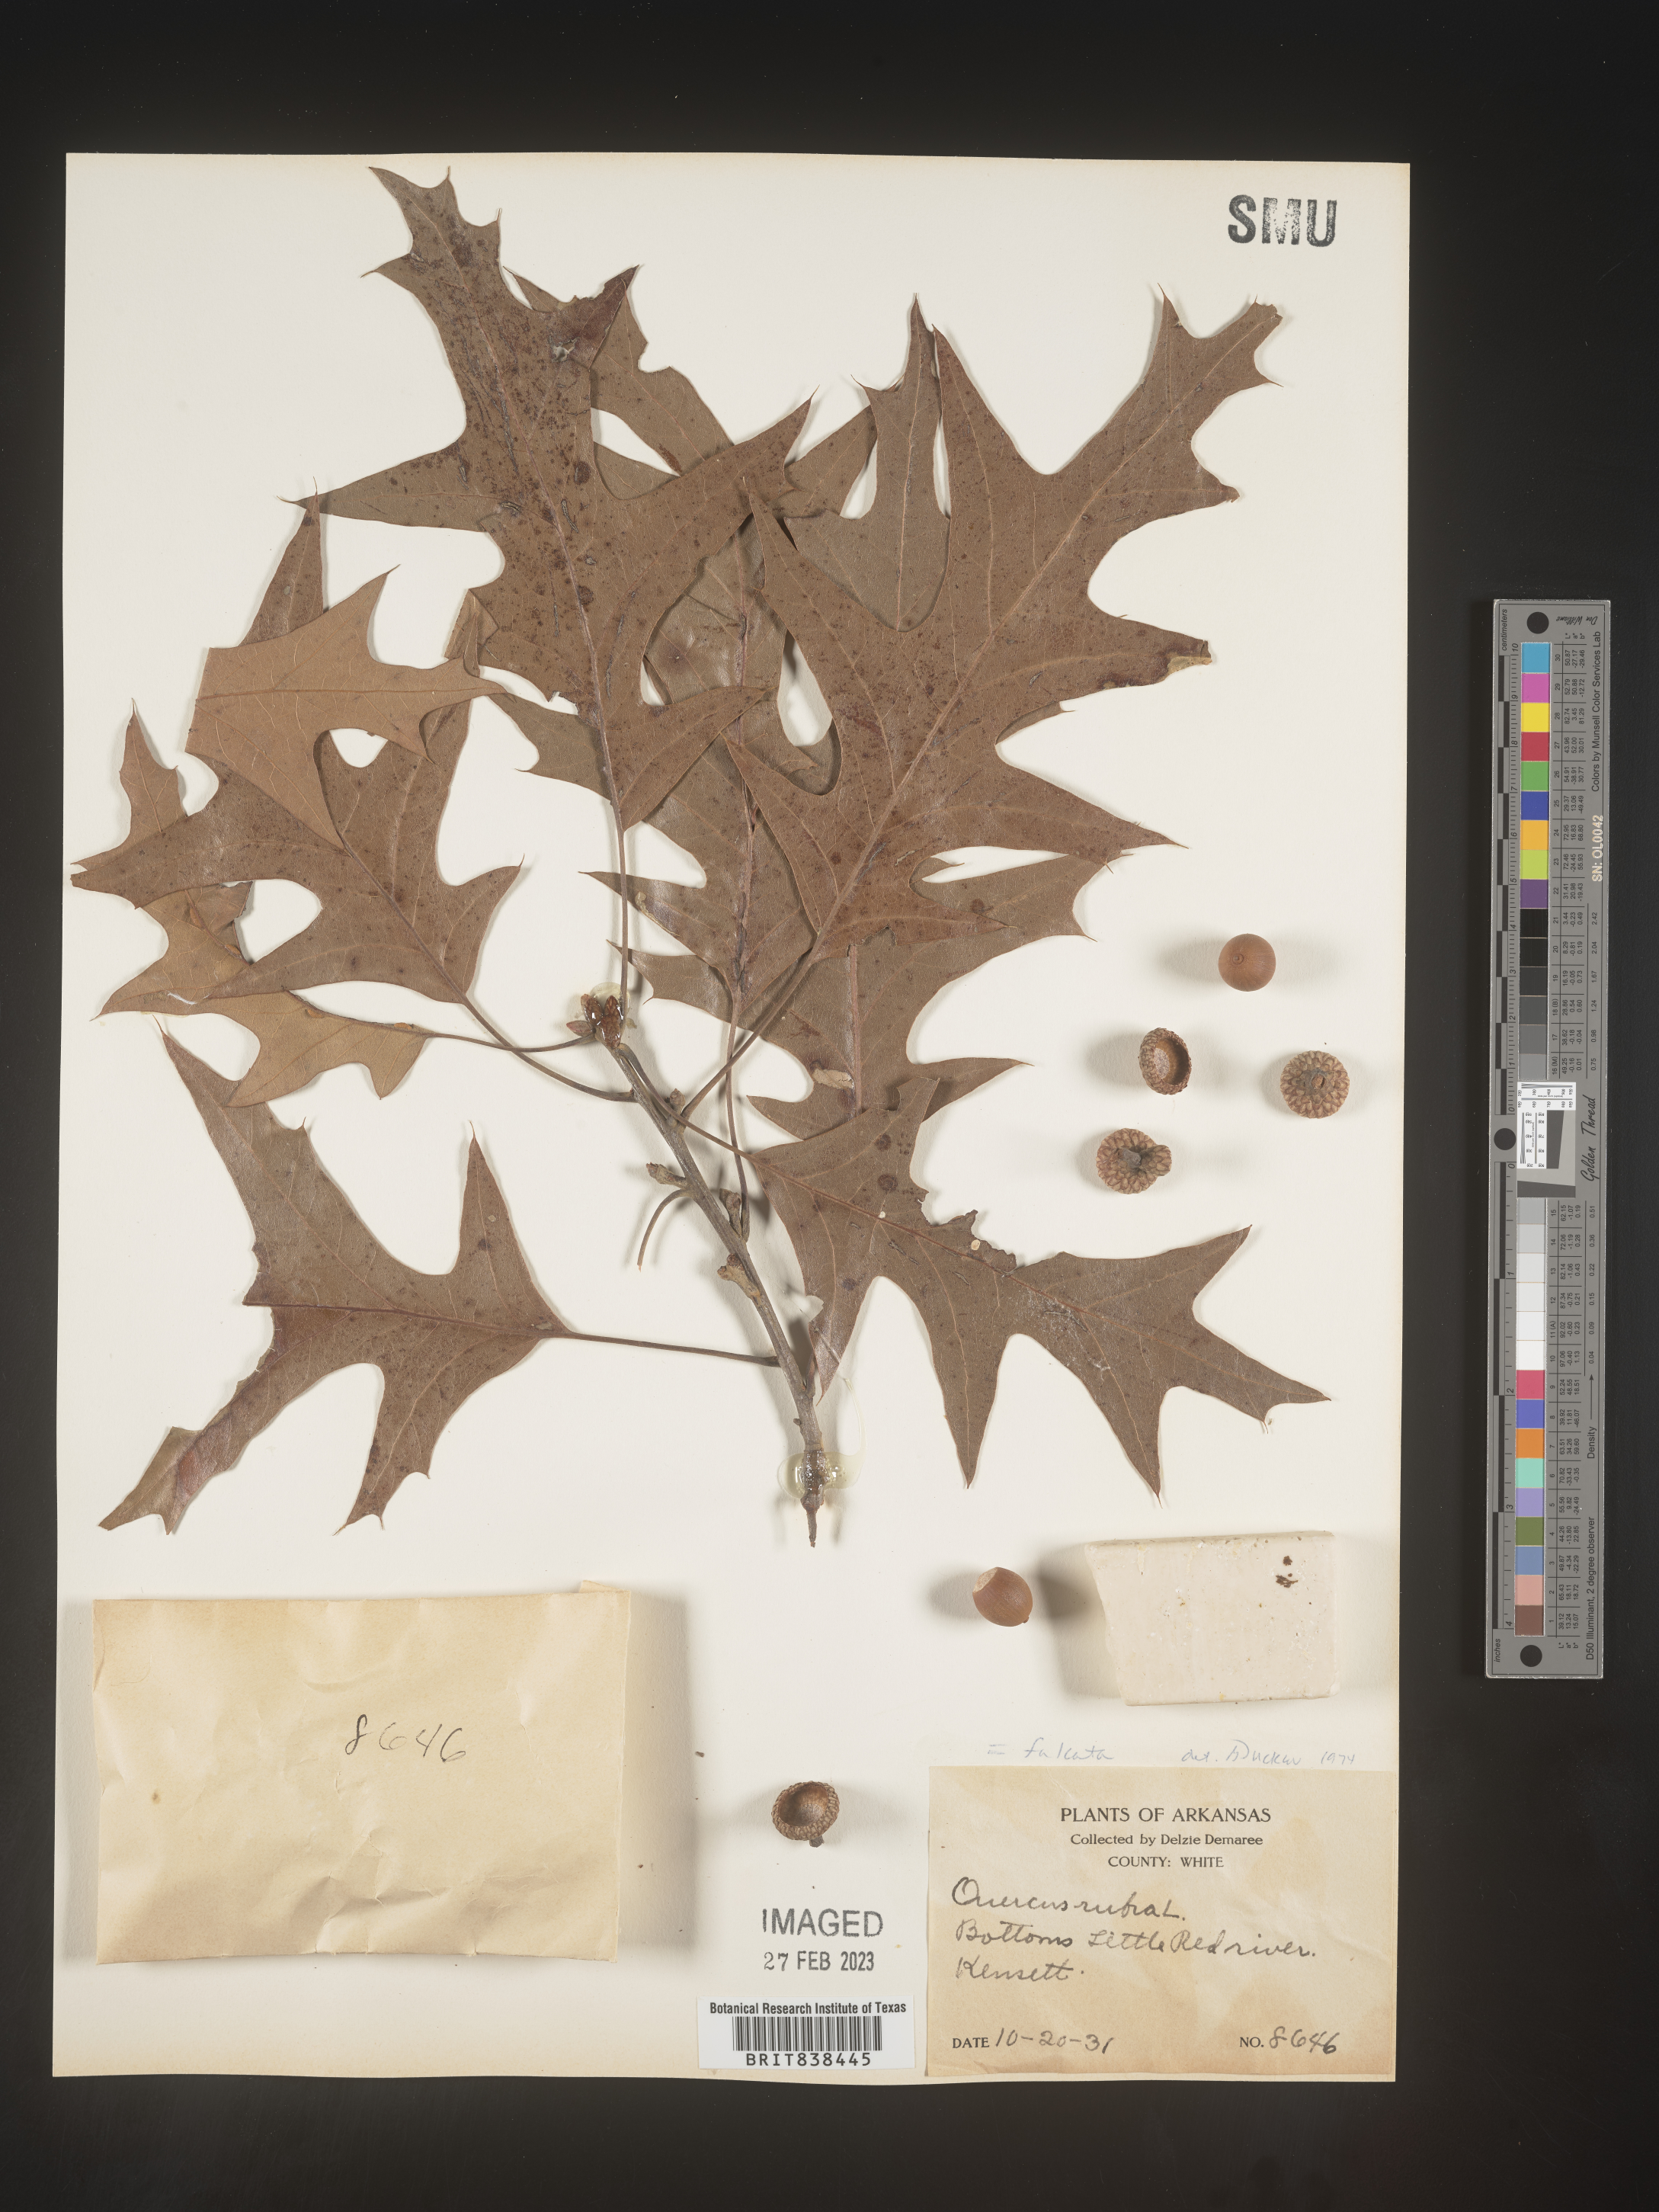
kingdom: Plantae
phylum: Tracheophyta
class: Magnoliopsida
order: Fagales
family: Fagaceae
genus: Quercus
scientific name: Quercus falcata
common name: Southern red oak
